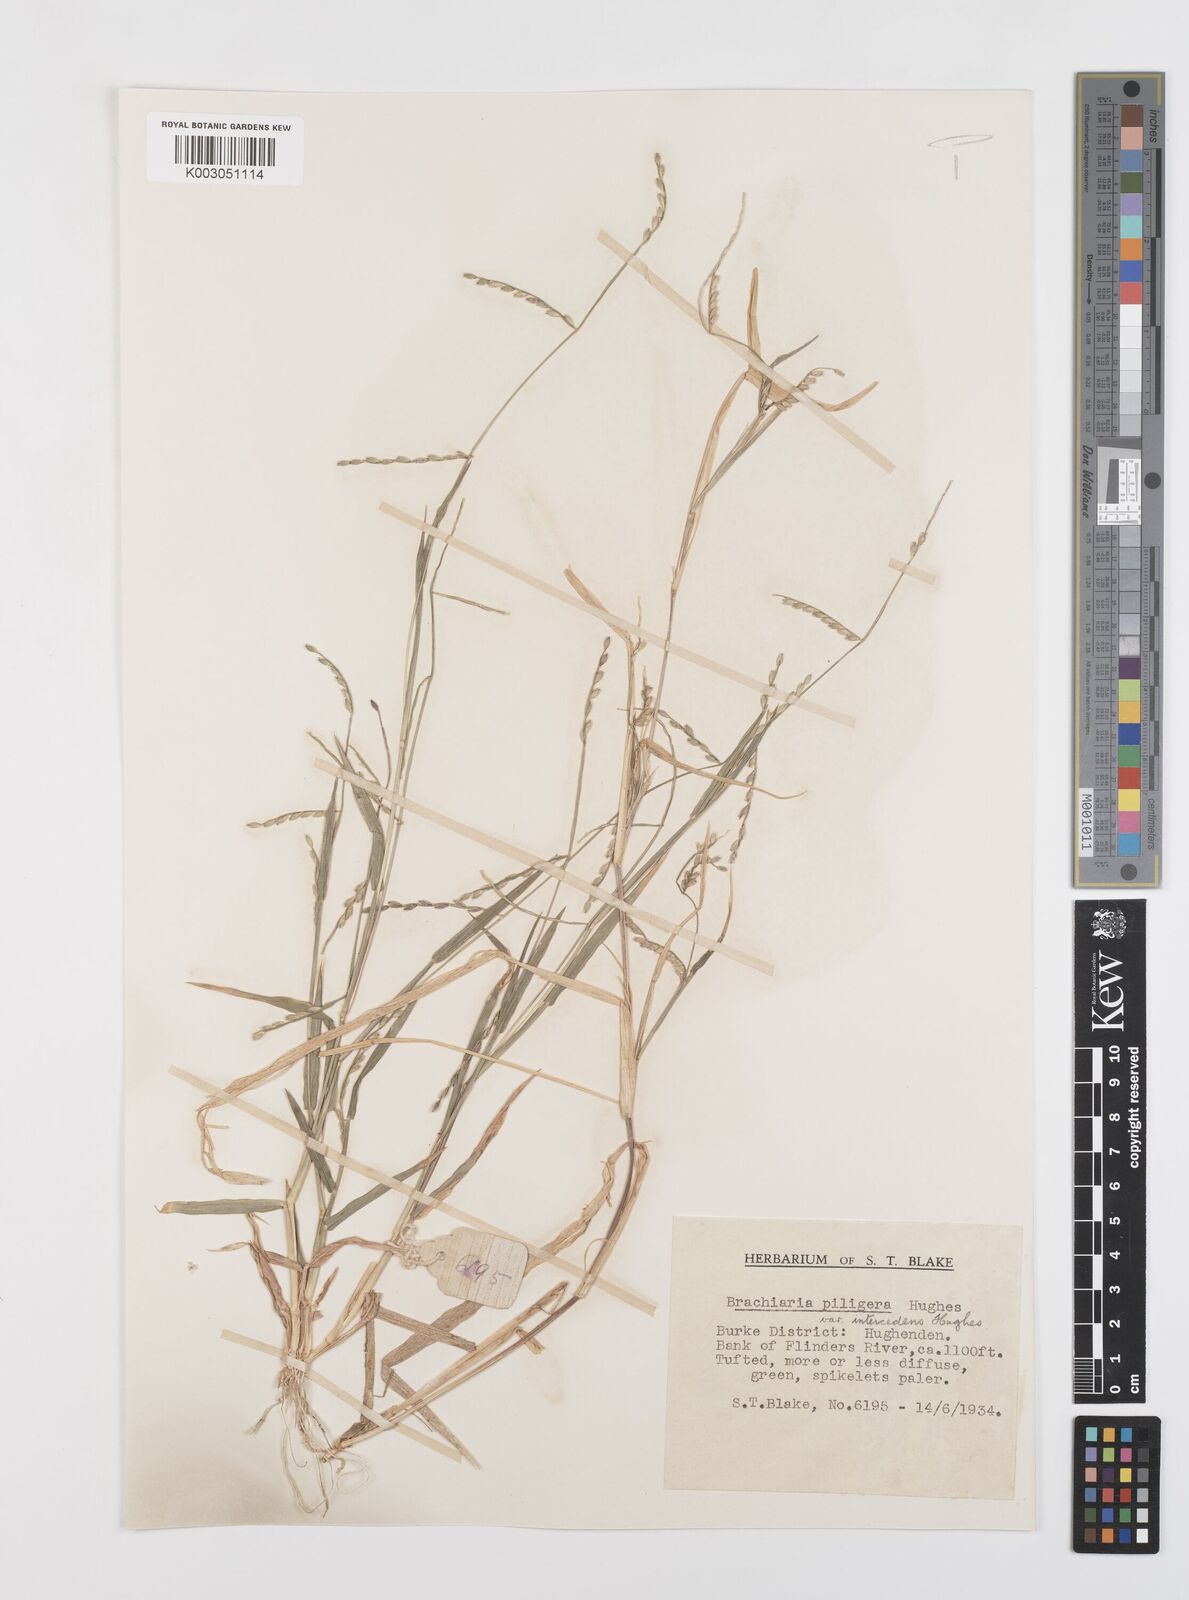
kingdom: Plantae
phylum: Tracheophyta
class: Liliopsida
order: Poales
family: Poaceae
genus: Urochloa
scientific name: Urochloa piligera
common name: Wattle signalgrass
